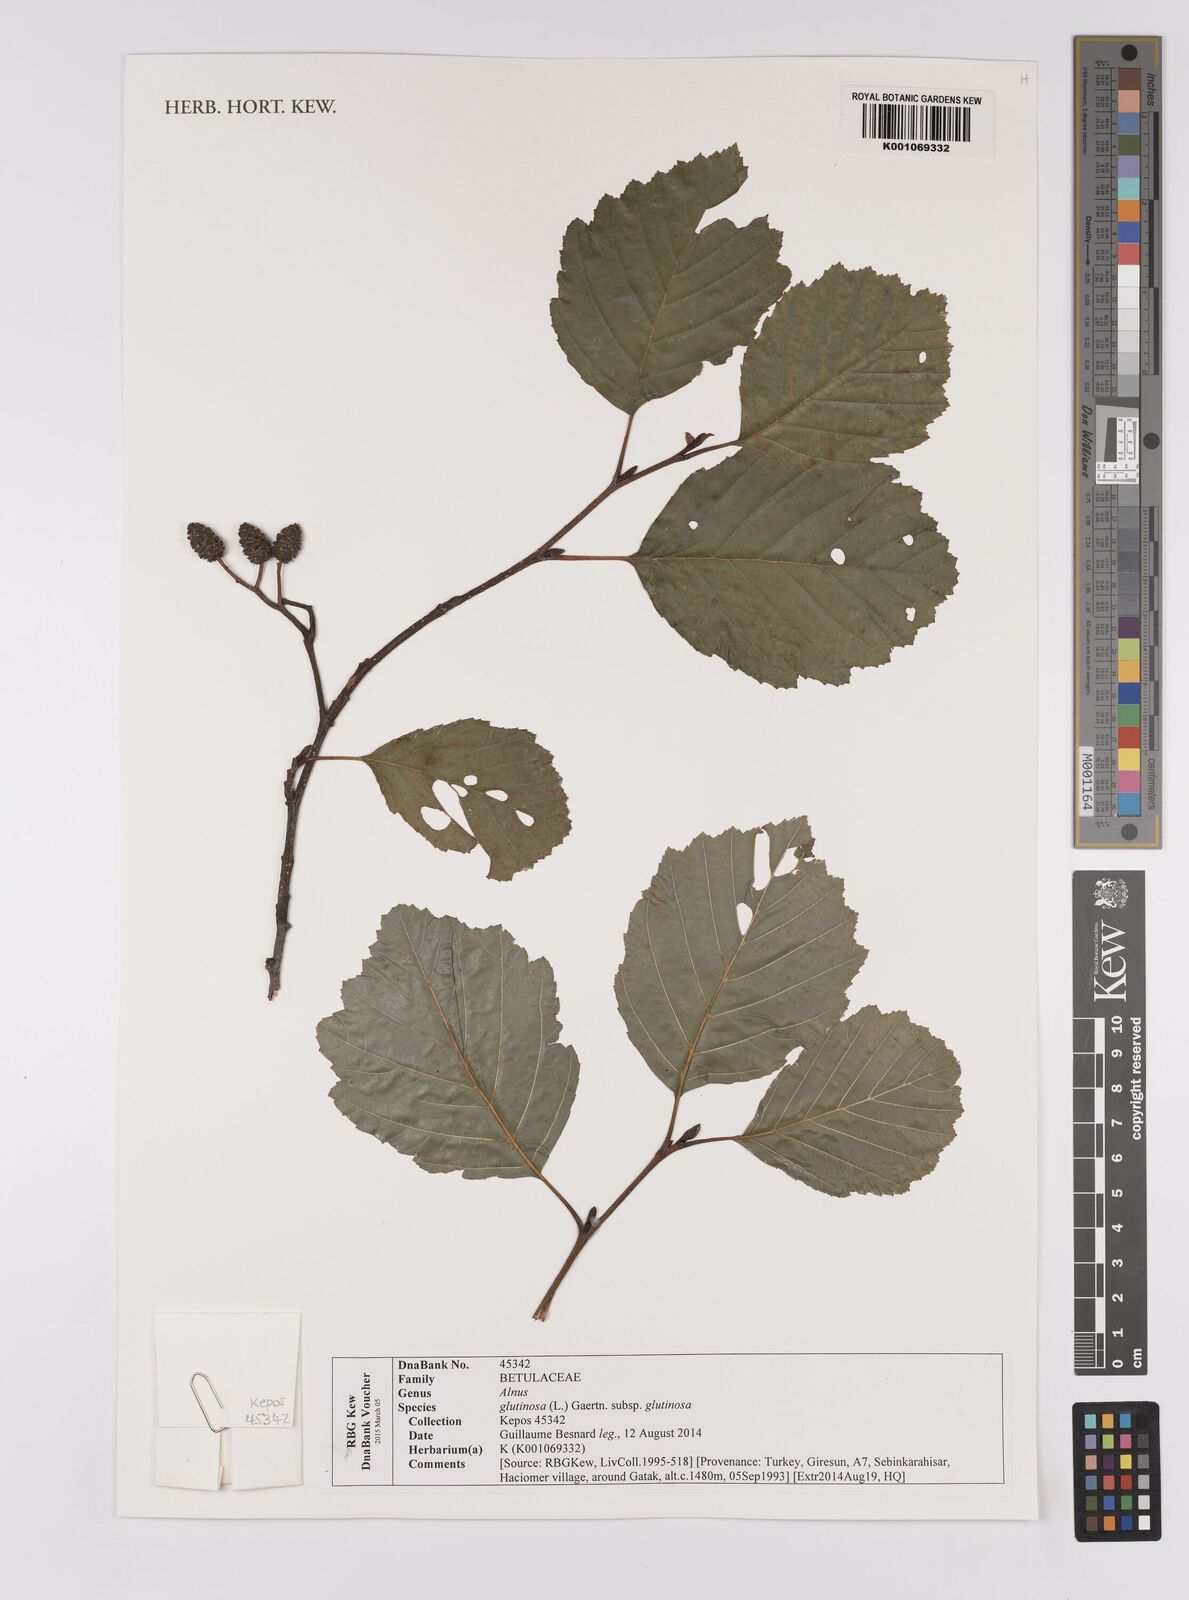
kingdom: Plantae
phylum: Tracheophyta
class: Magnoliopsida
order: Fagales
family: Betulaceae
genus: Alnus
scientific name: Alnus glutinosa
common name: Black alder
